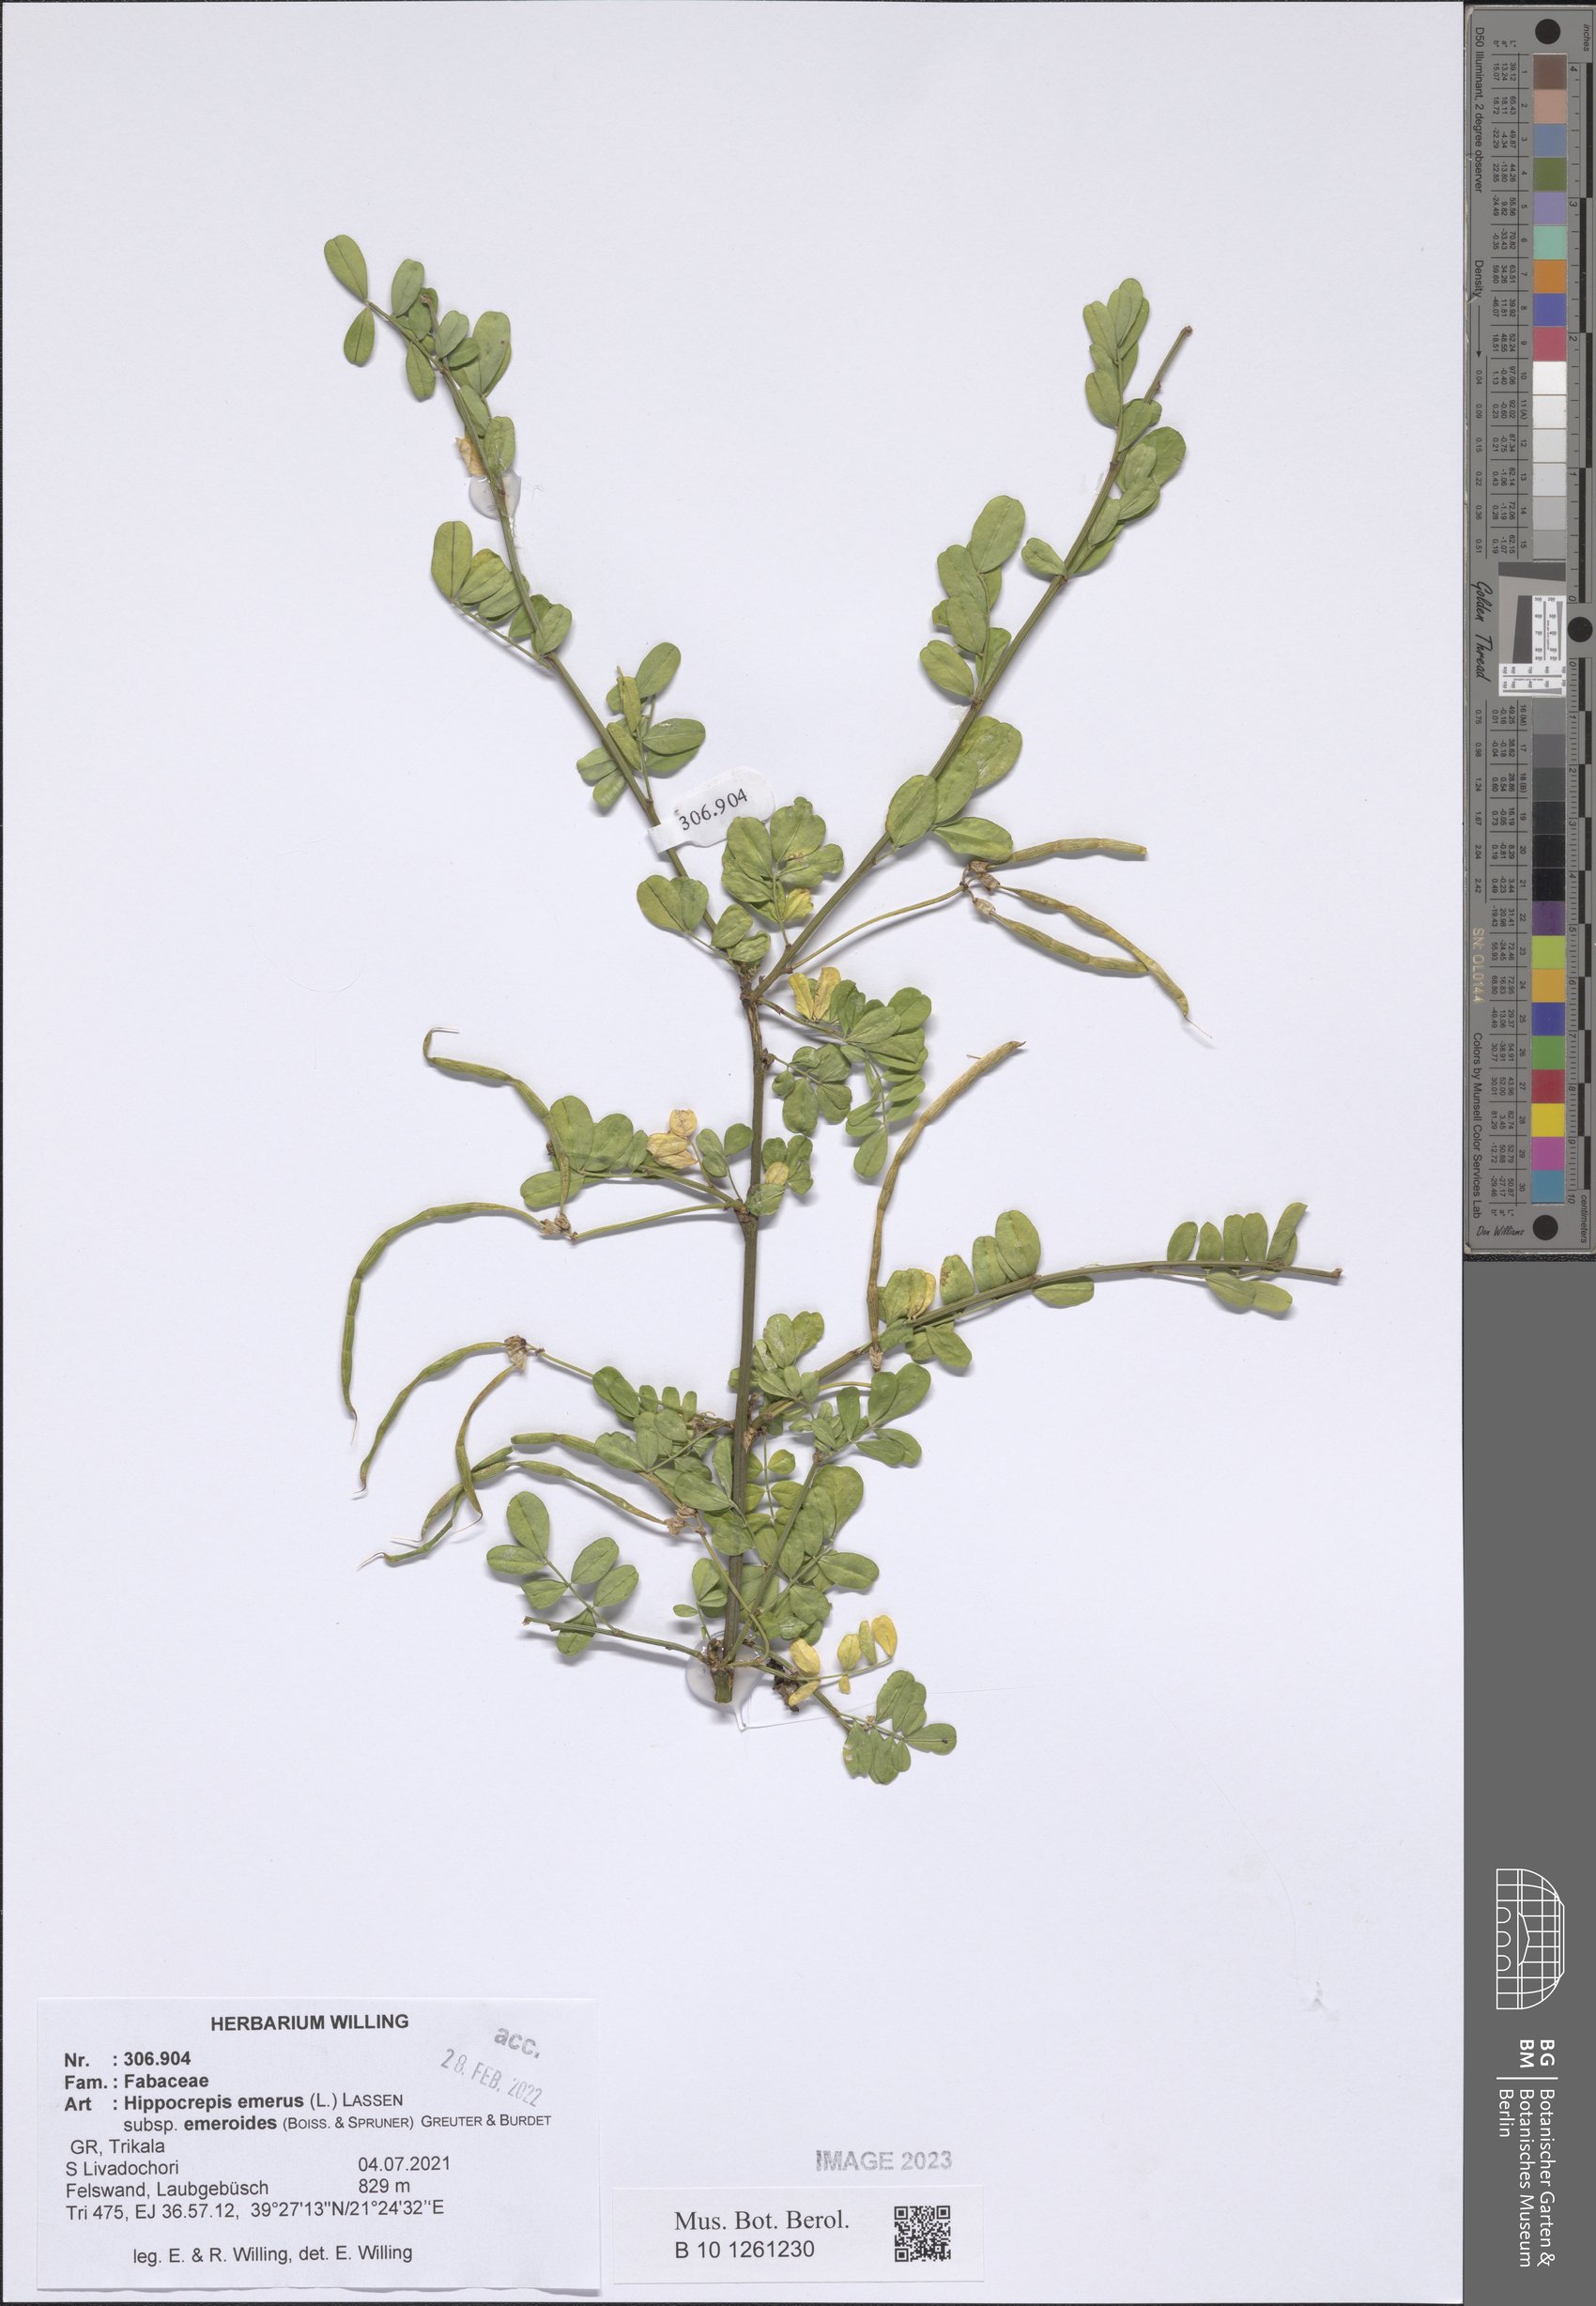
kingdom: Plantae
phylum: Tracheophyta
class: Magnoliopsida
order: Fabales
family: Fabaceae
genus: Hippocrepis
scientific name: Hippocrepis emerus
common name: Scorpion senna
